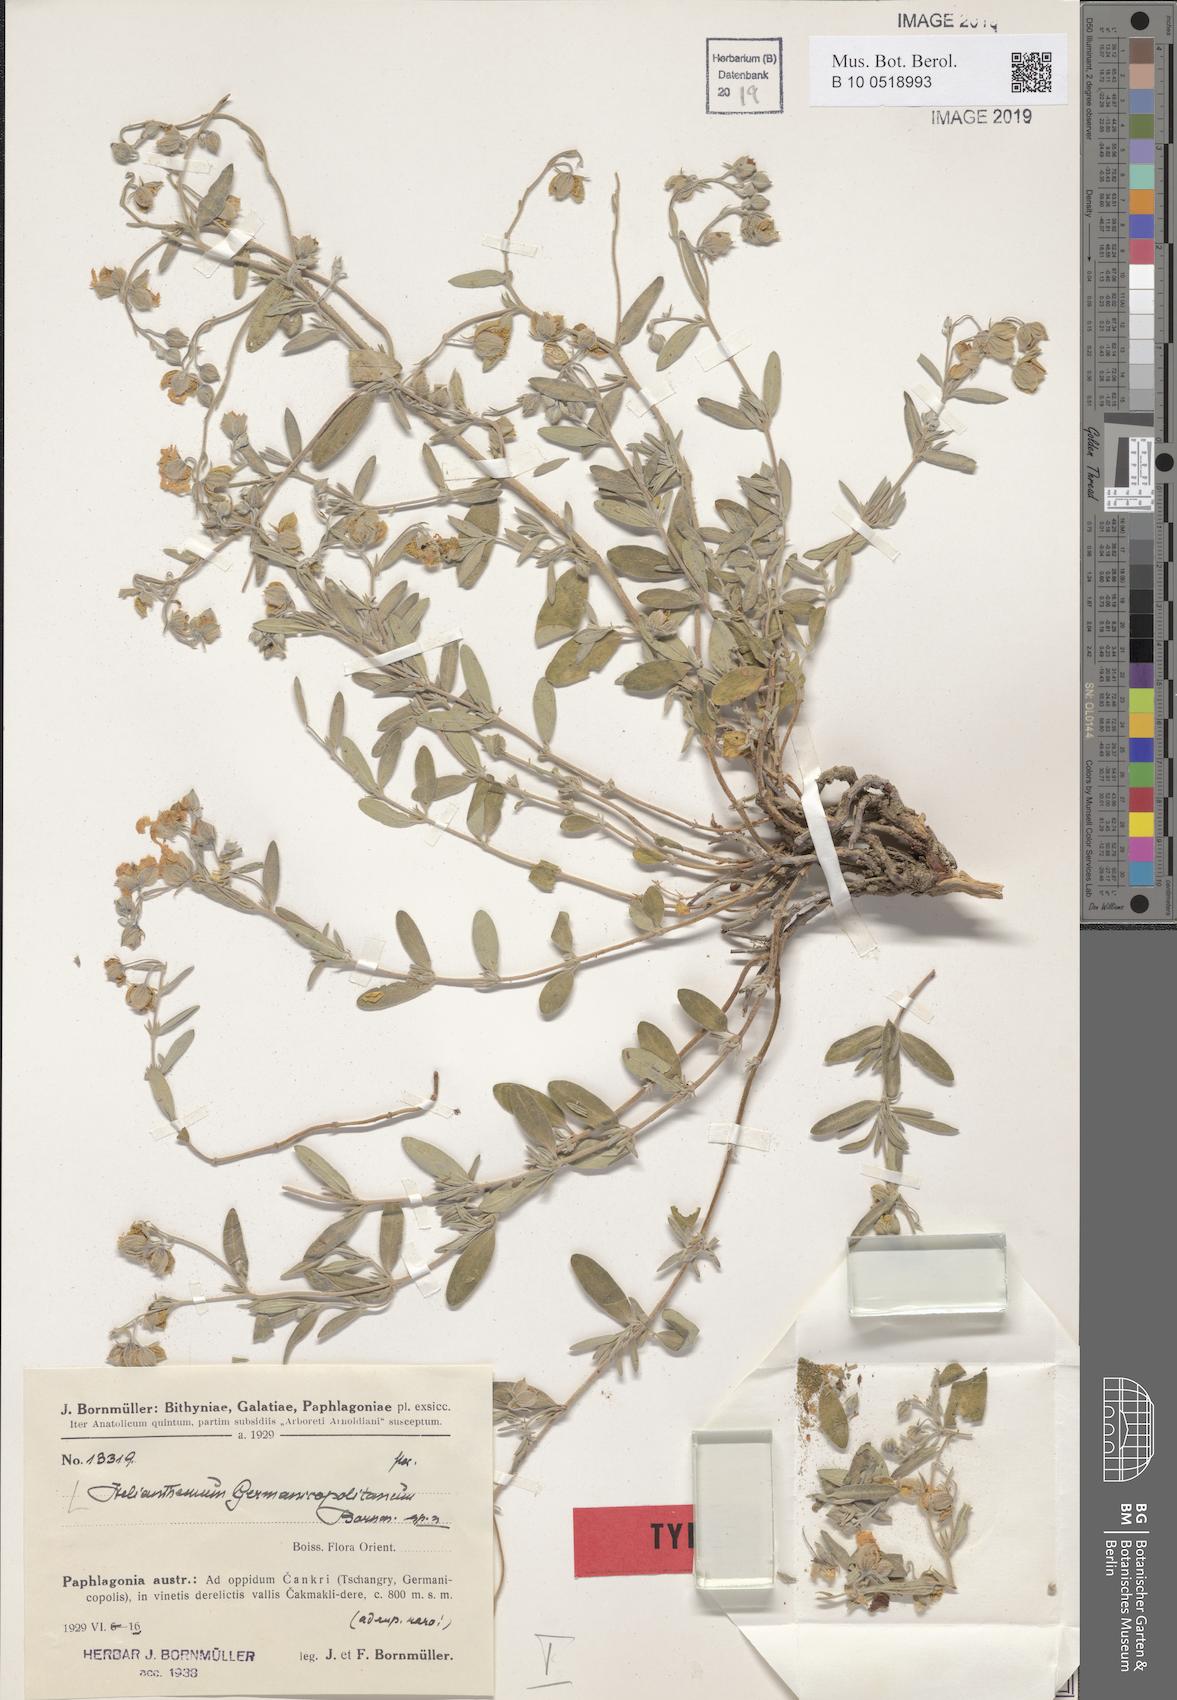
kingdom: Plantae
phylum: Tracheophyta
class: Magnoliopsida
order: Malvales
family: Cistaceae
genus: Helianthemum
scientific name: Helianthemum germanicopolitanum
